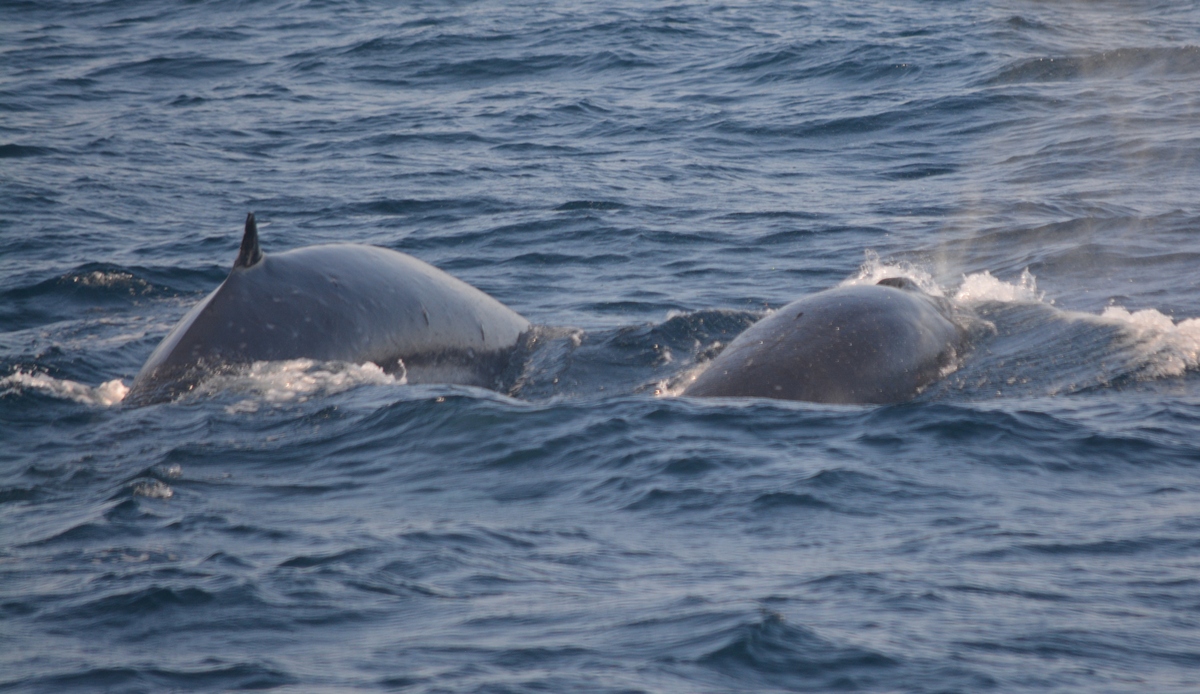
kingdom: Animalia
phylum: Chordata
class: Mammalia
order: Cetacea
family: Balaenopteridae
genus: Balaenoptera
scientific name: Balaenoptera edeni
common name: Bryde's whale
